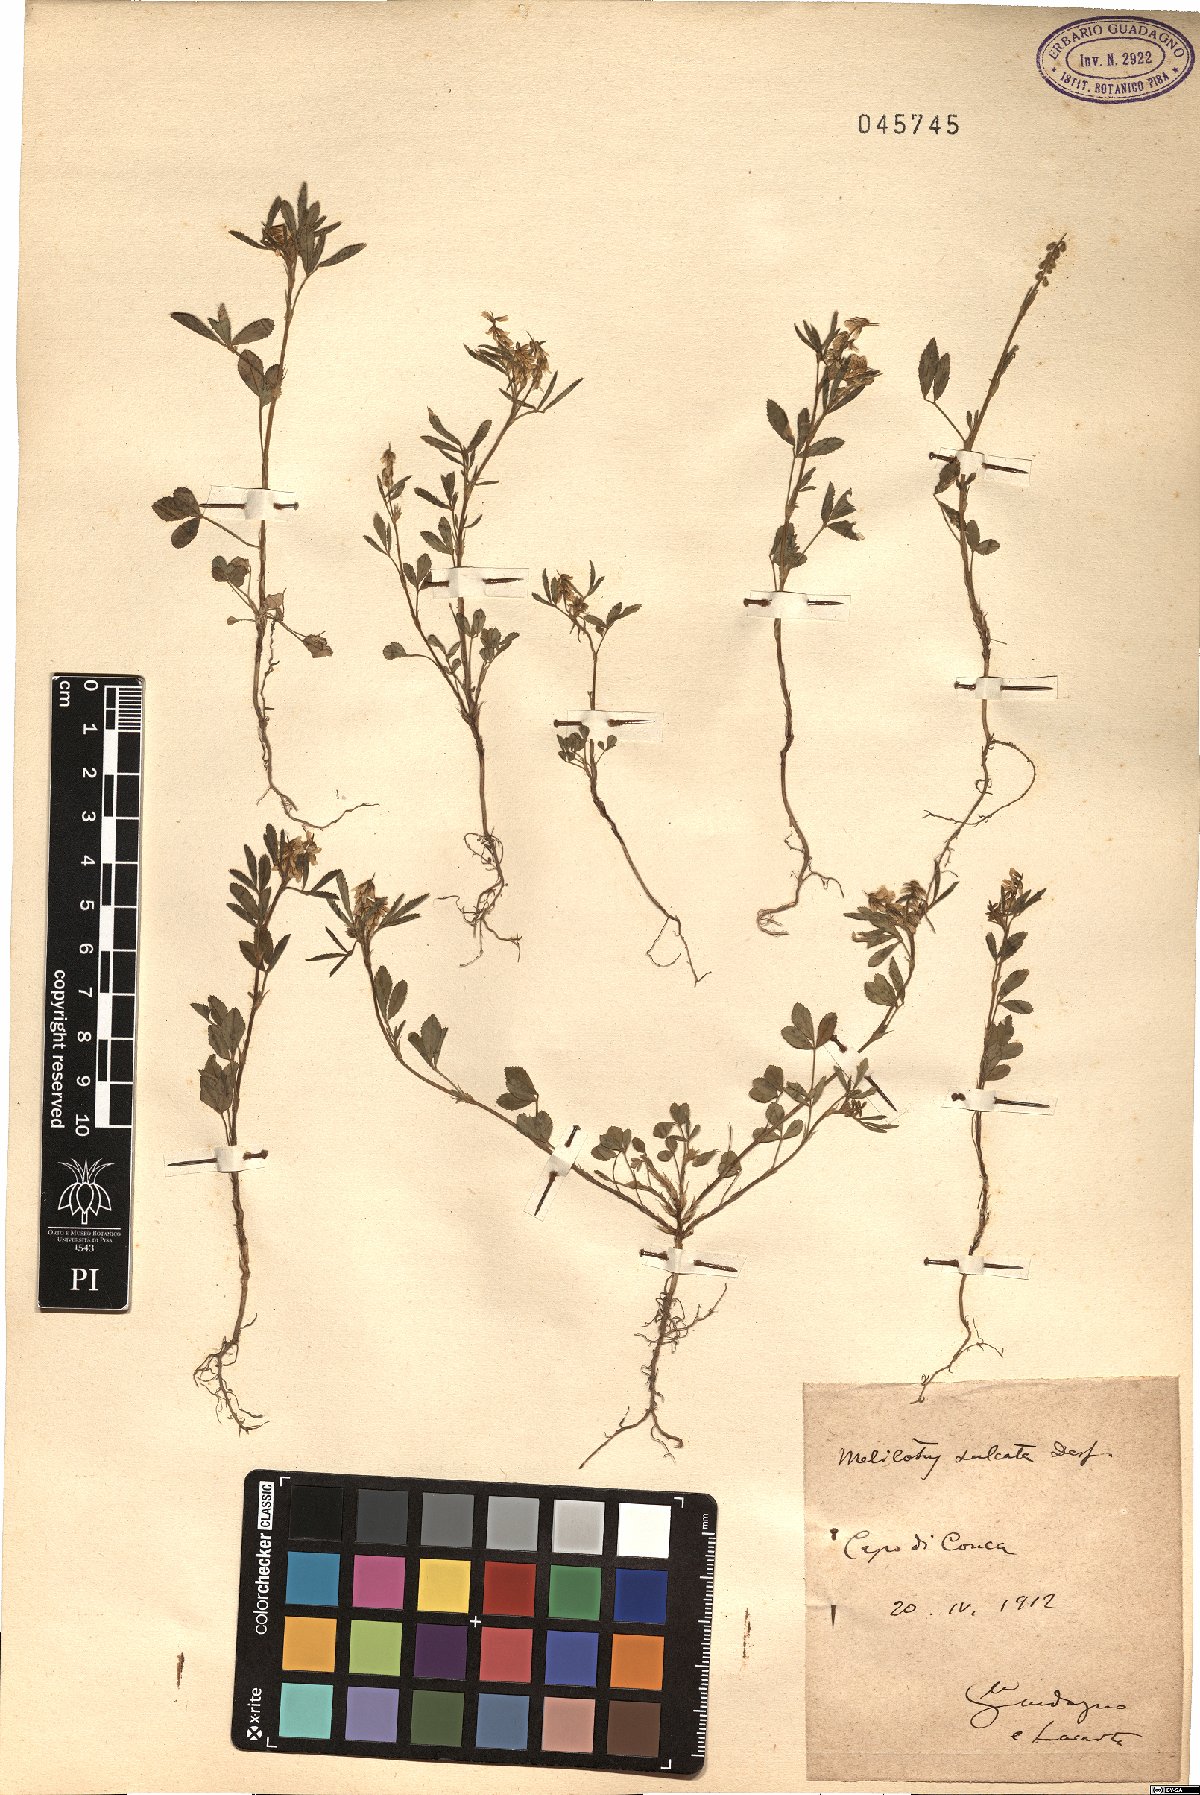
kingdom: Plantae
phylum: Tracheophyta
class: Magnoliopsida
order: Fabales
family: Fabaceae
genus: Melilotus
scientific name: Melilotus sulcatus
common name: Furrowed melilot
